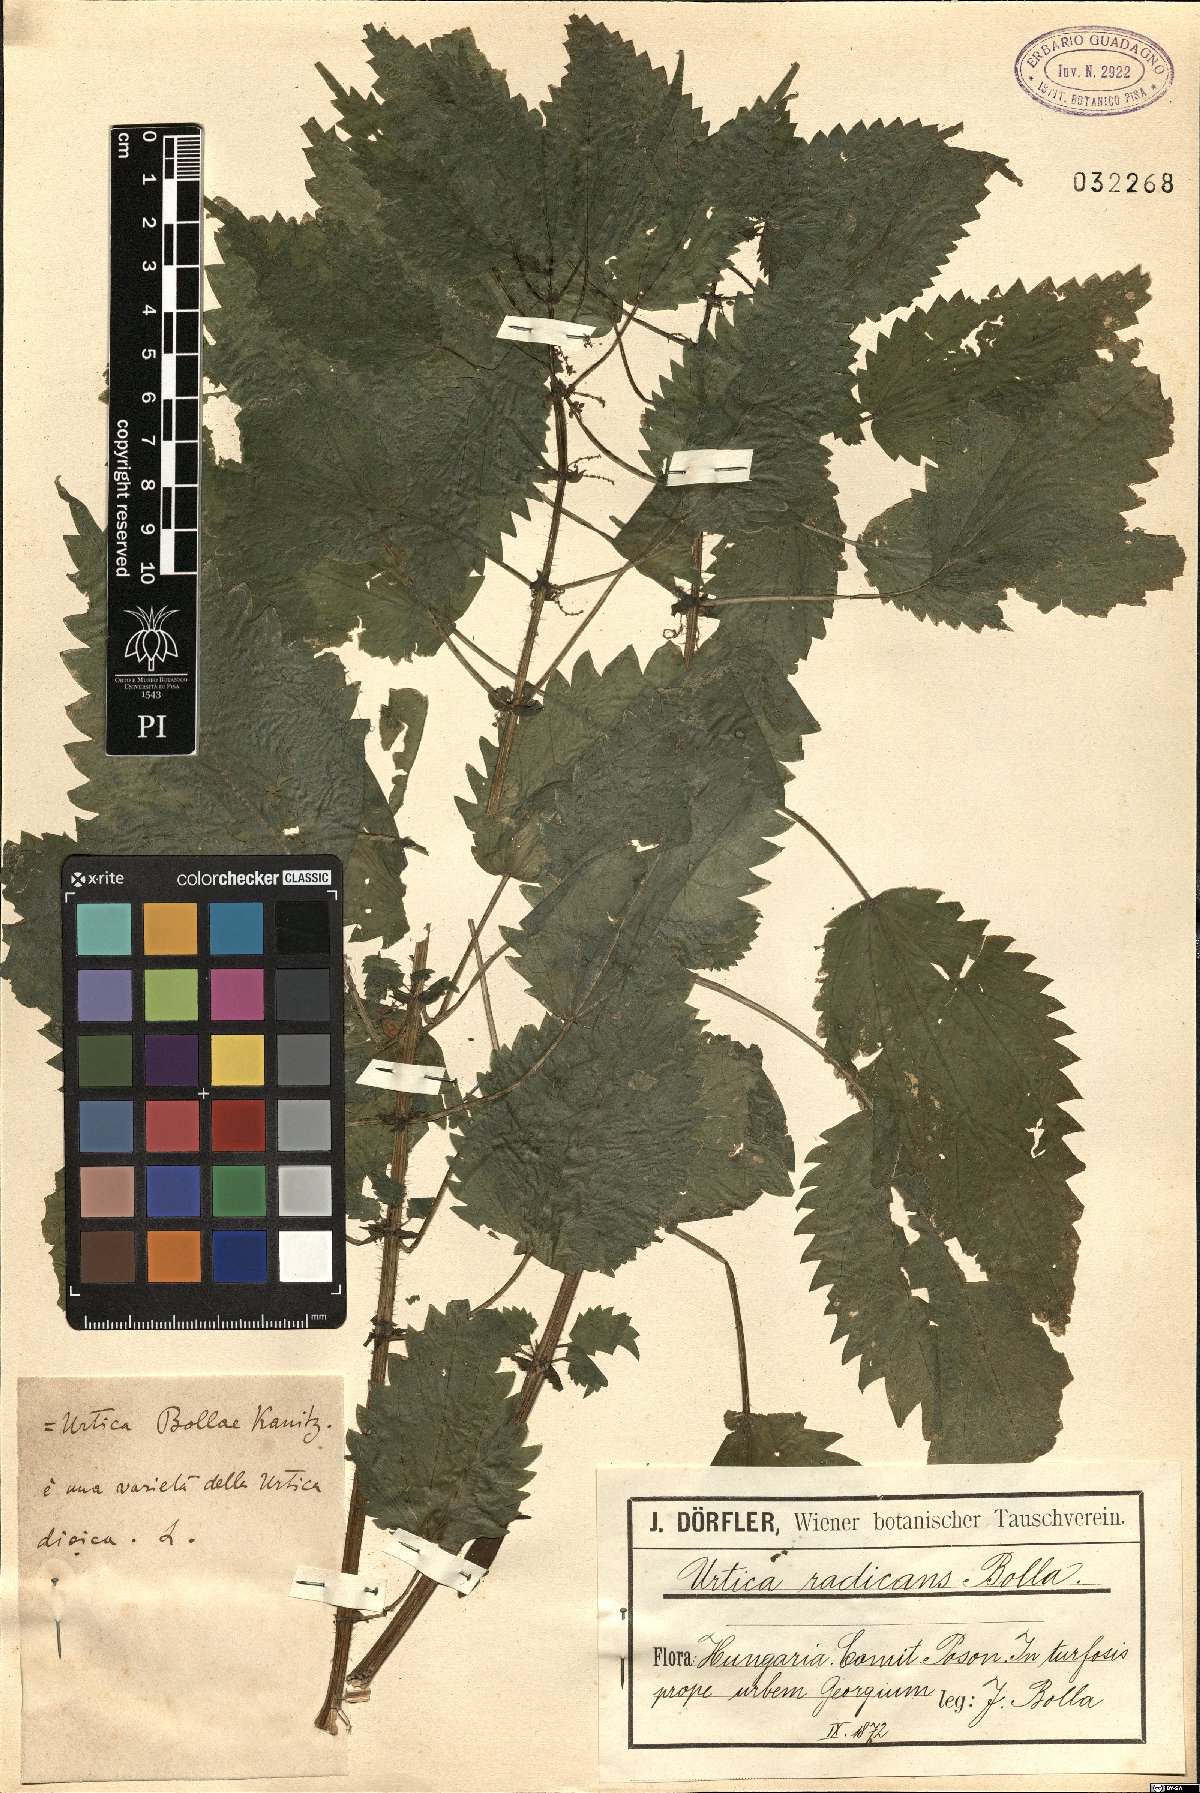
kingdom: Plantae
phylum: Tracheophyta
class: Magnoliopsida
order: Rosales
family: Urticaceae
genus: Urtica
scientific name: Urtica kioviensis
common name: Kievan nettle
